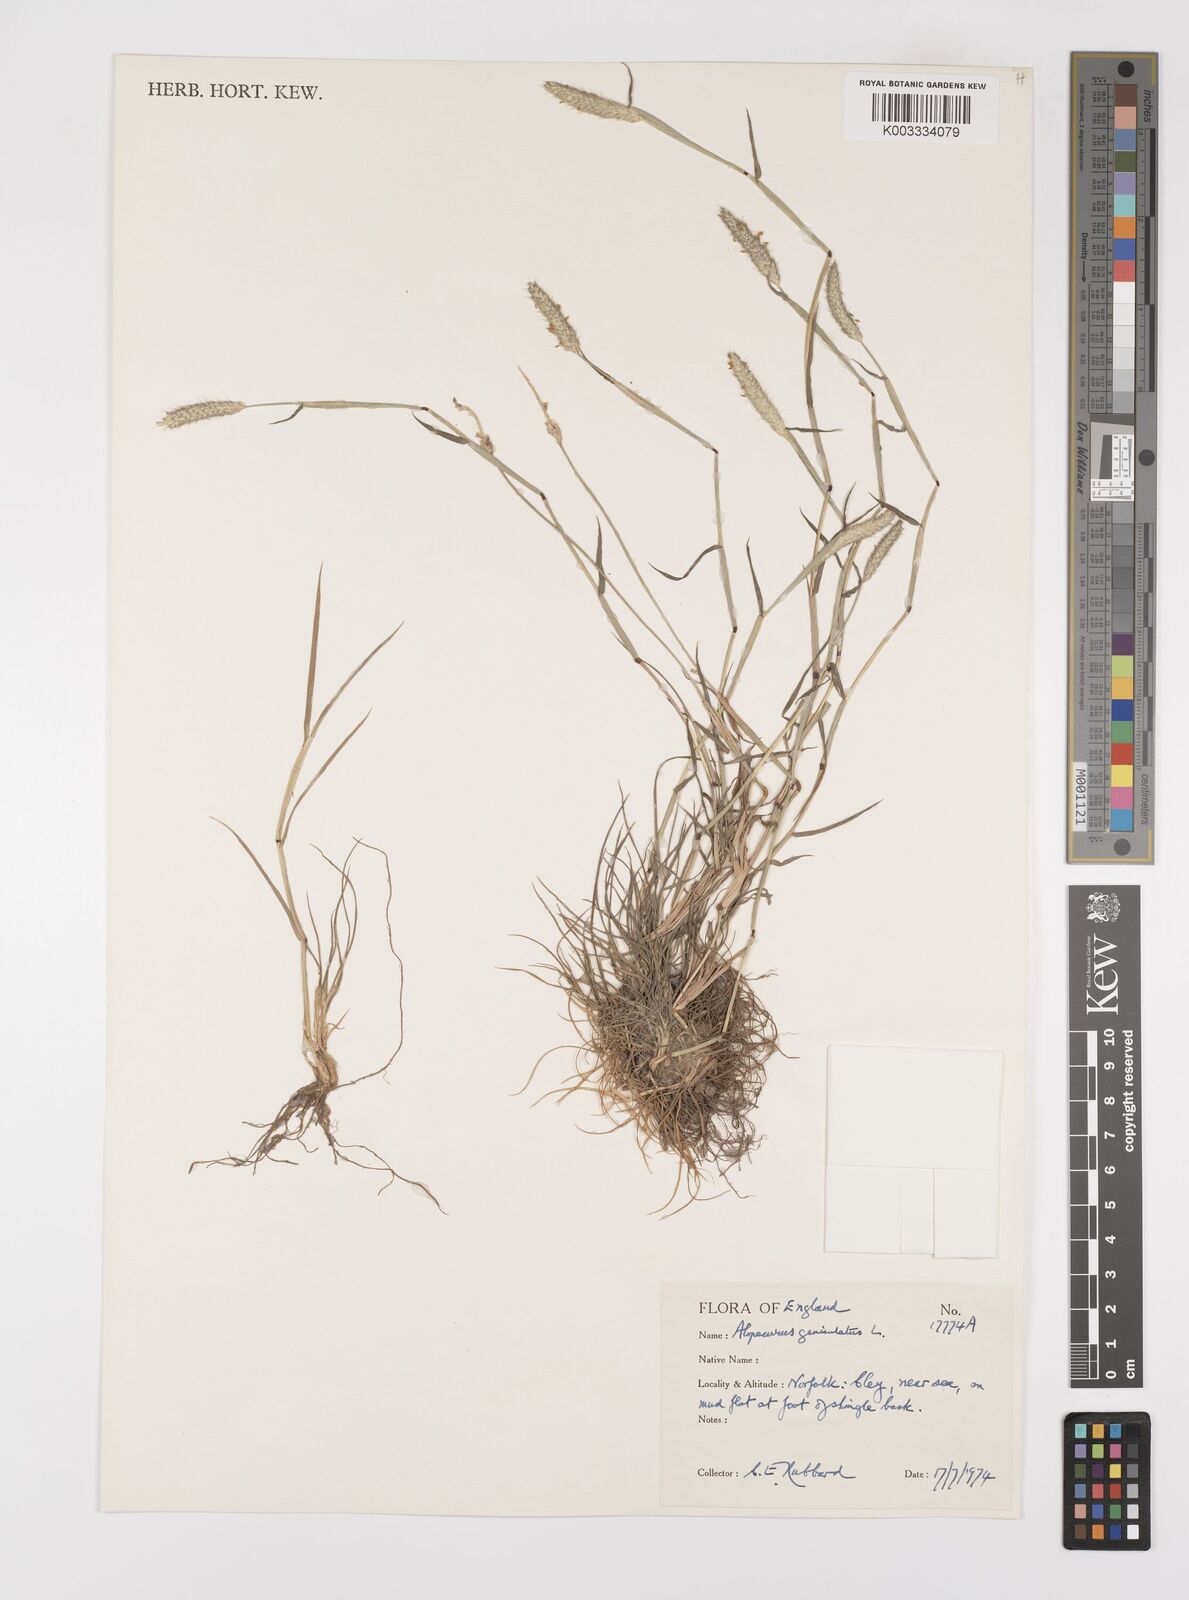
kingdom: Plantae
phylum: Tracheophyta
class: Liliopsida
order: Poales
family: Poaceae
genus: Alopecurus
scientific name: Alopecurus geniculatus
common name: Water foxtail
